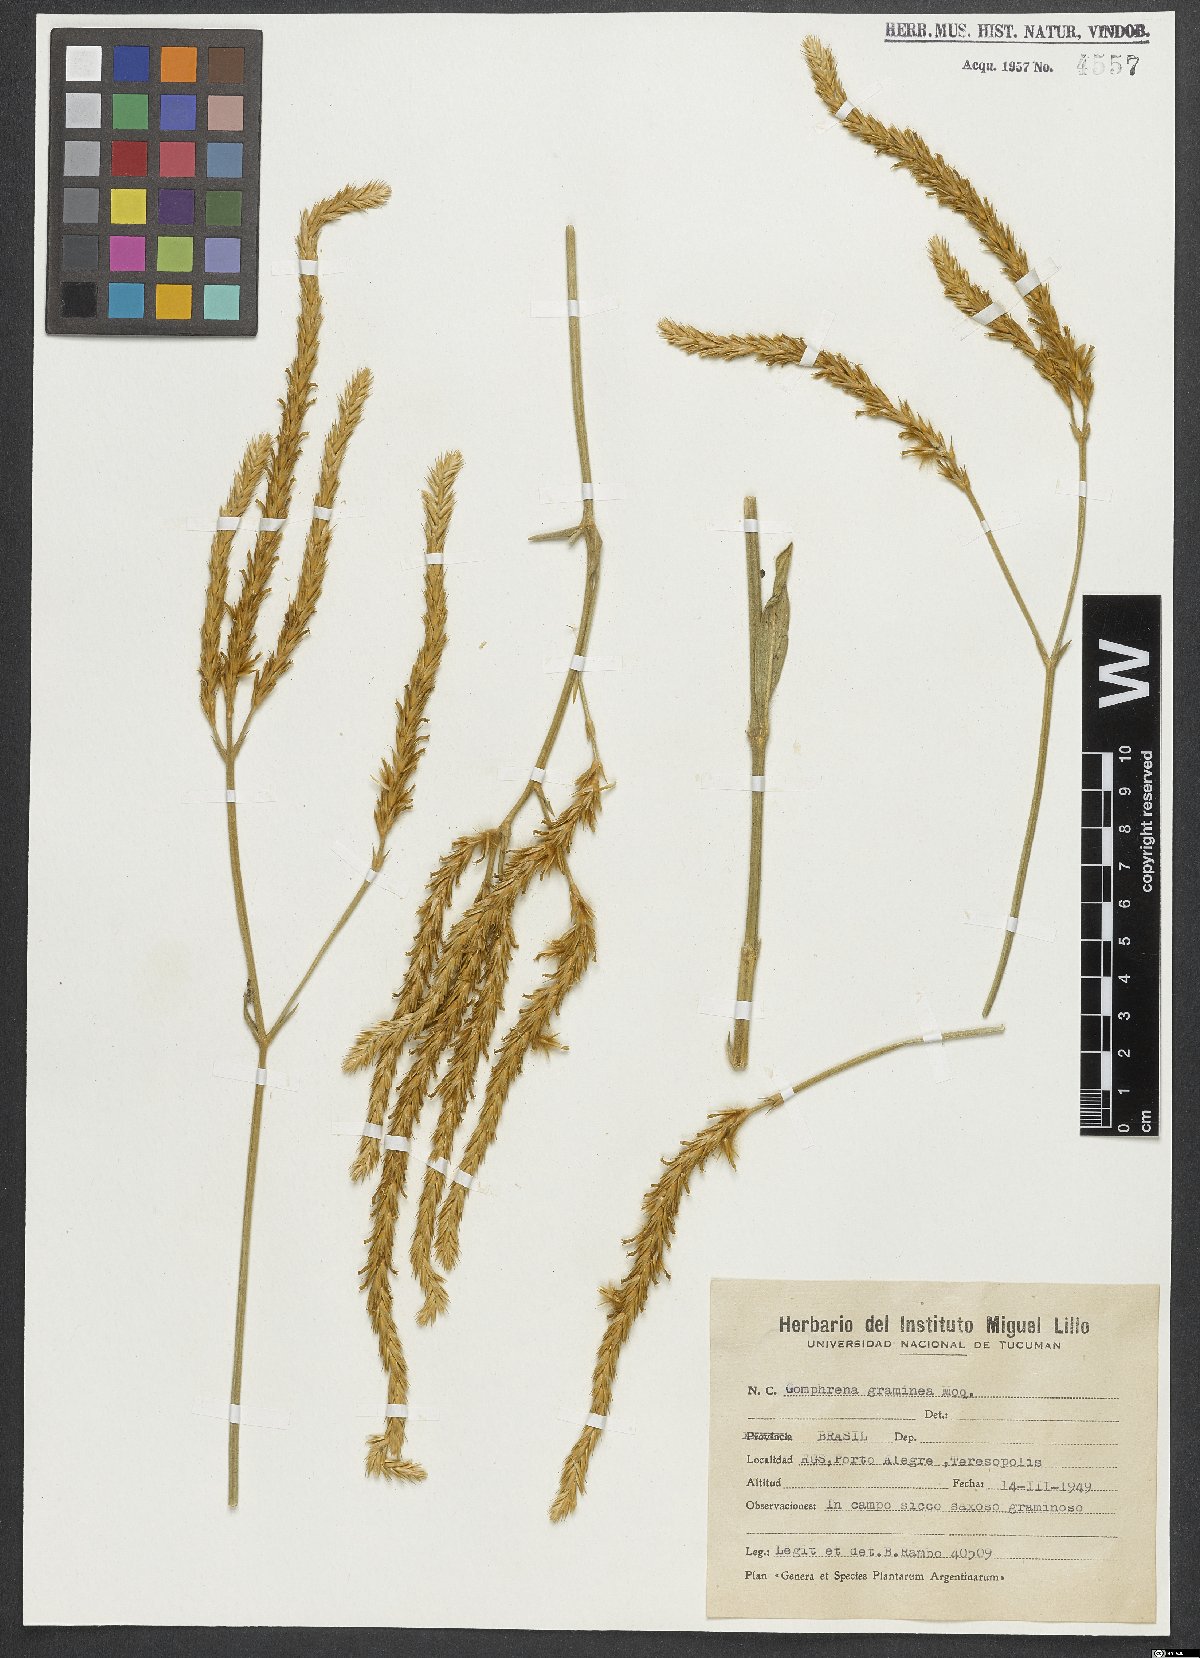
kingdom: Plantae
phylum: Tracheophyta
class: Magnoliopsida
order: Caryophyllales
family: Amaranthaceae
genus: Gomphrena
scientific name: Gomphrena graminea
